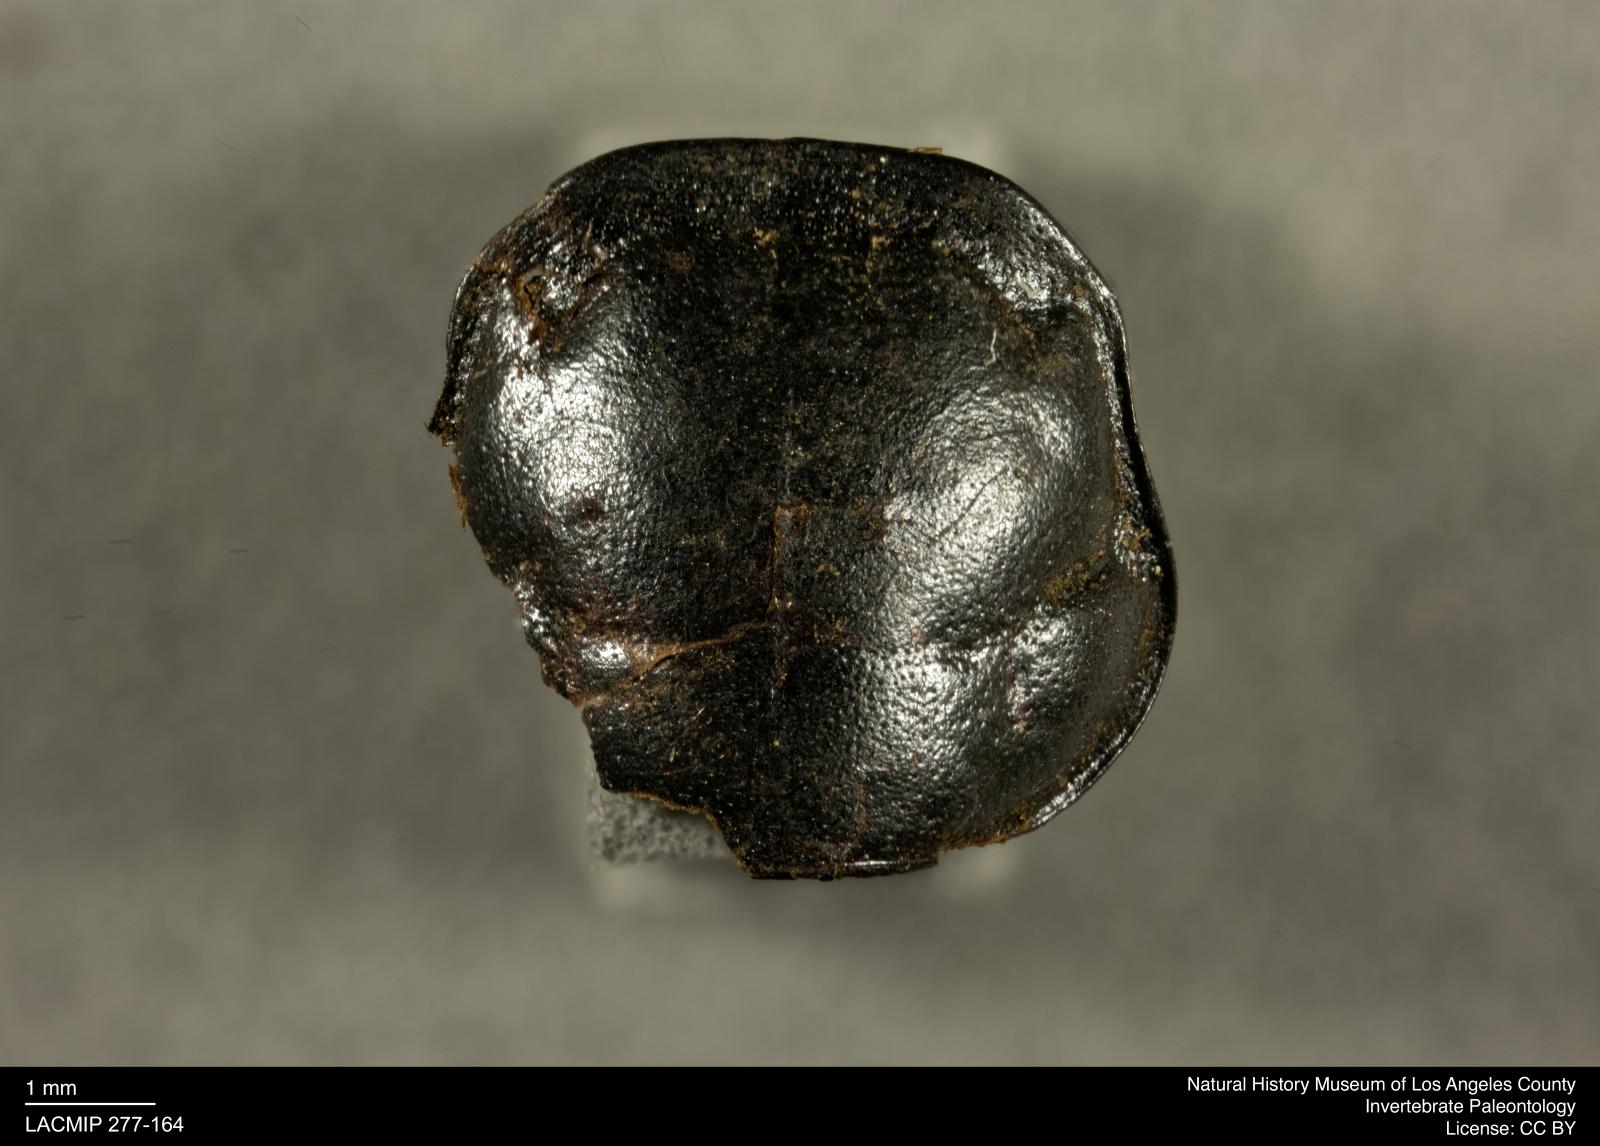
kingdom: Animalia
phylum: Arthropoda
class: Insecta
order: Coleoptera
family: Staphylinidae
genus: Nicrophorus
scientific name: Nicrophorus marginatus
